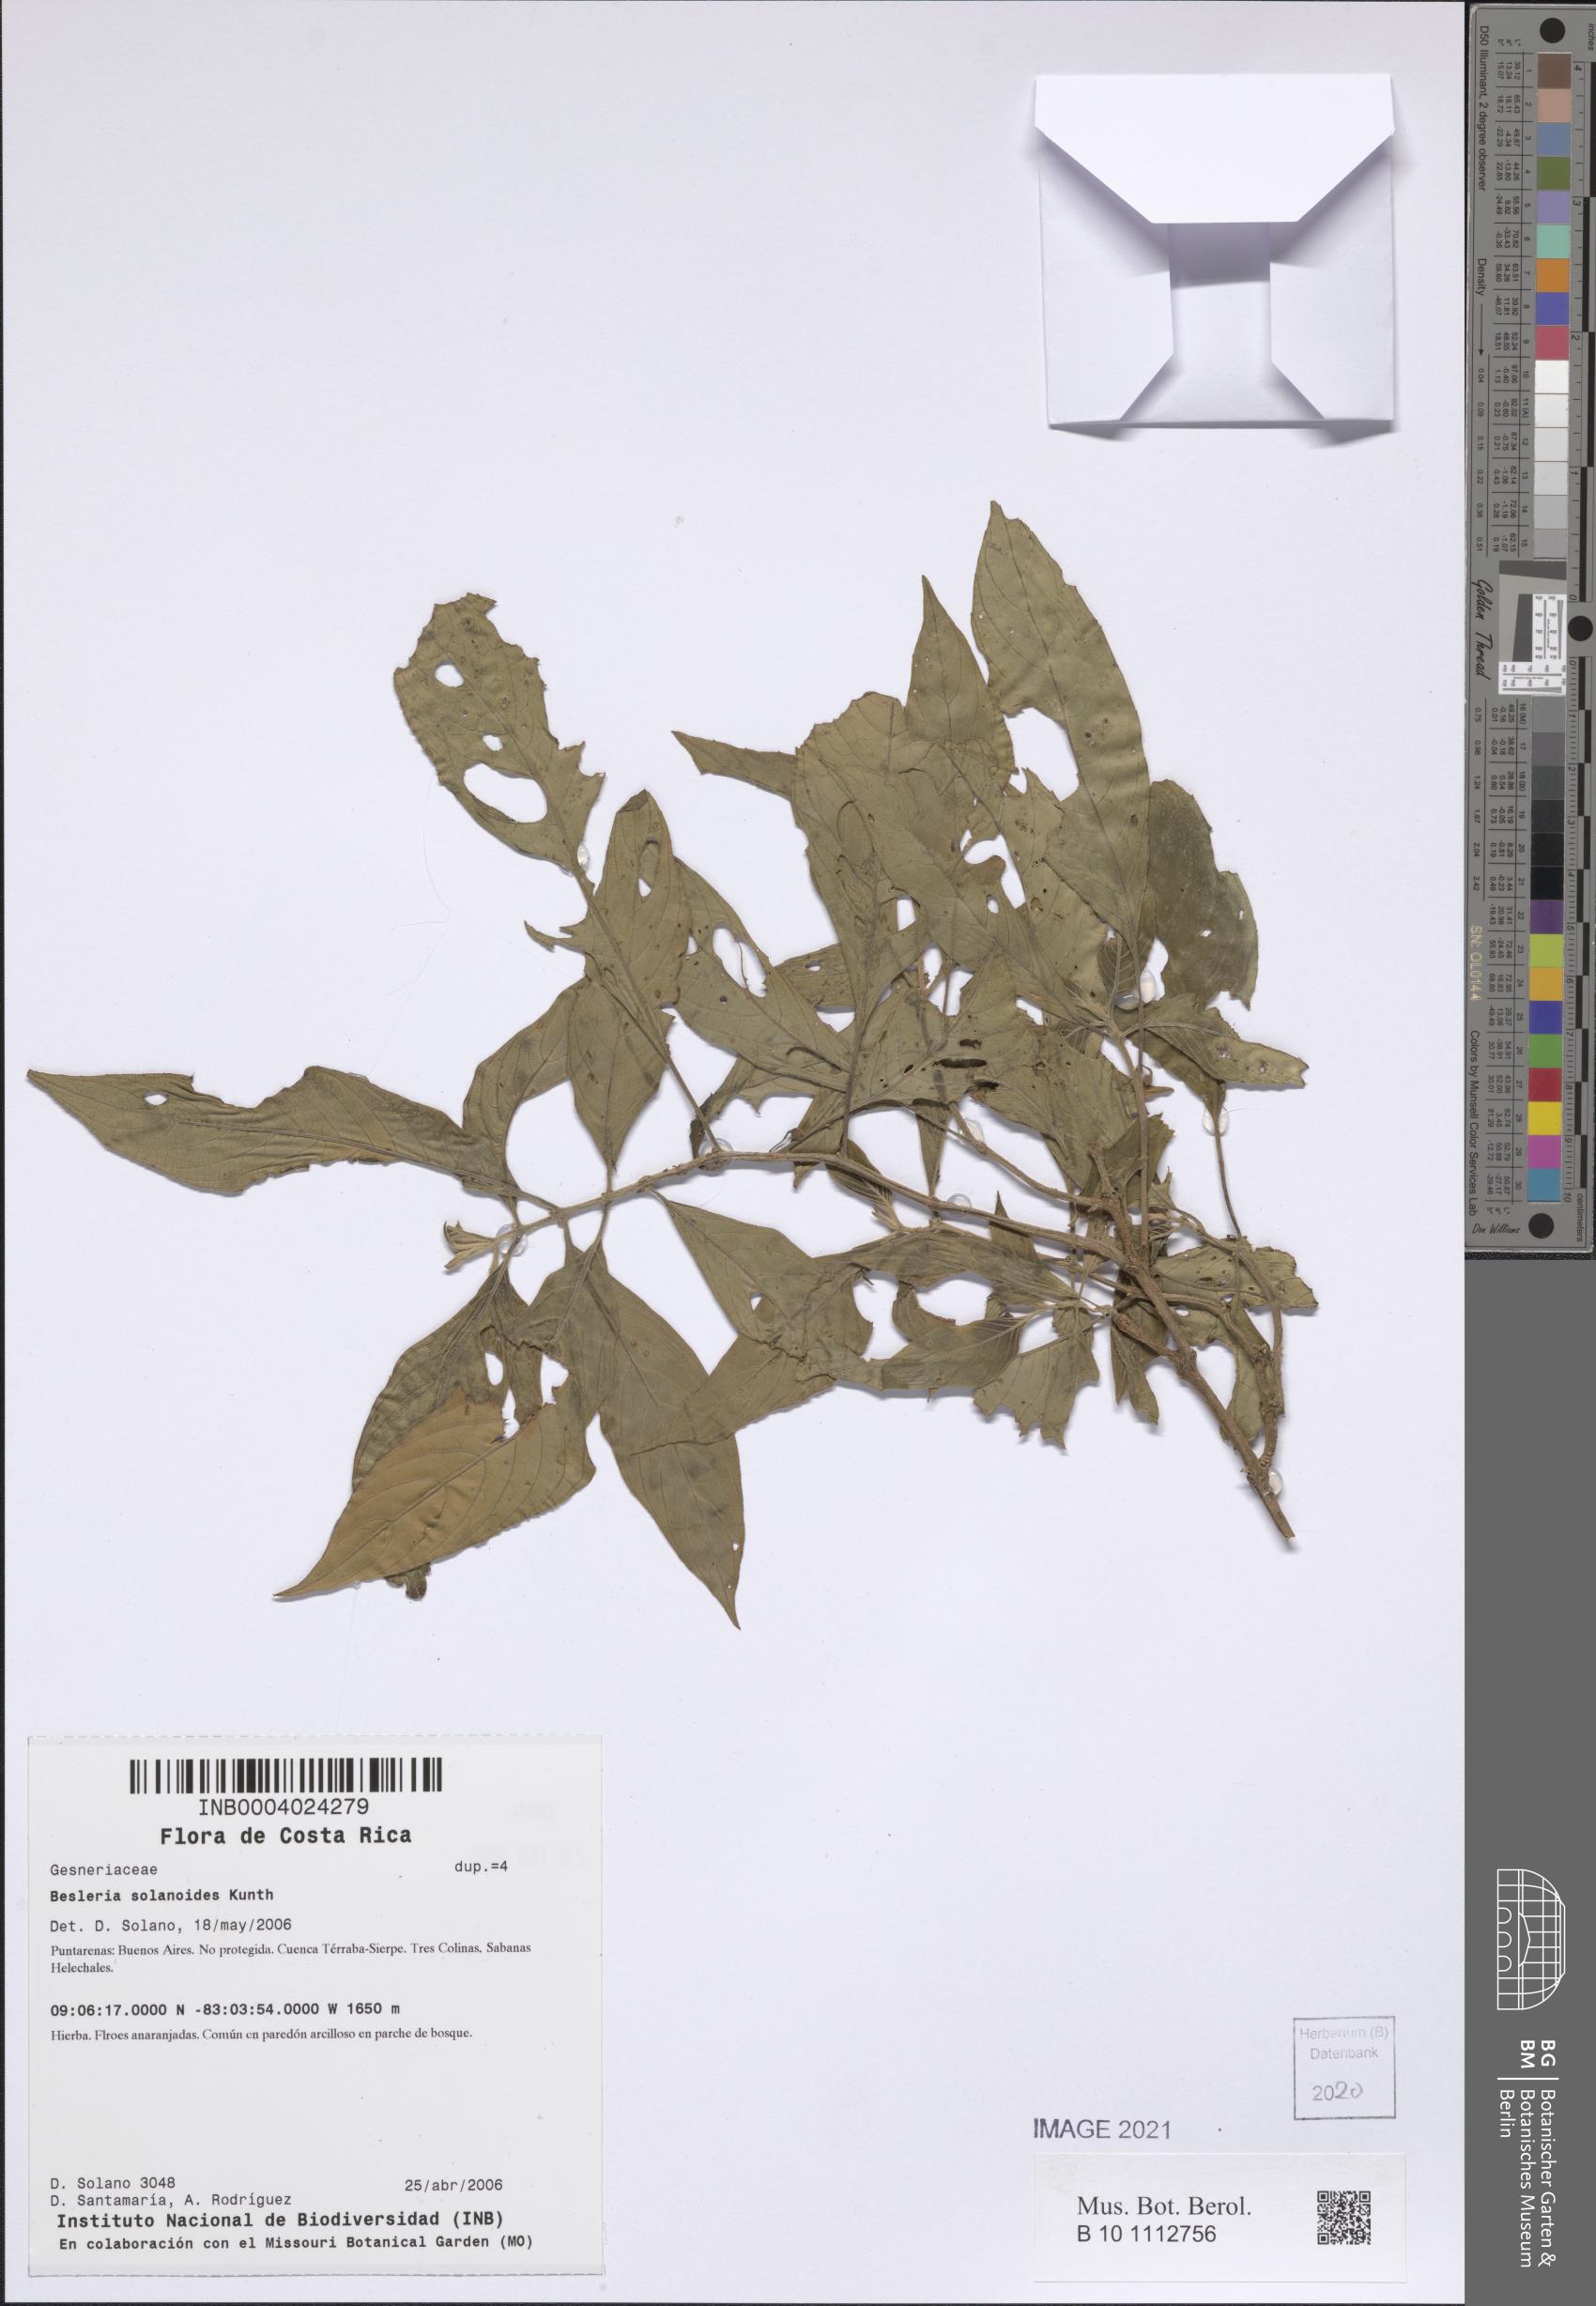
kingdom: Plantae
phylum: Tracheophyta
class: Magnoliopsida
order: Lamiales
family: Gesneriaceae
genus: Besleria
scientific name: Besleria solanoides
